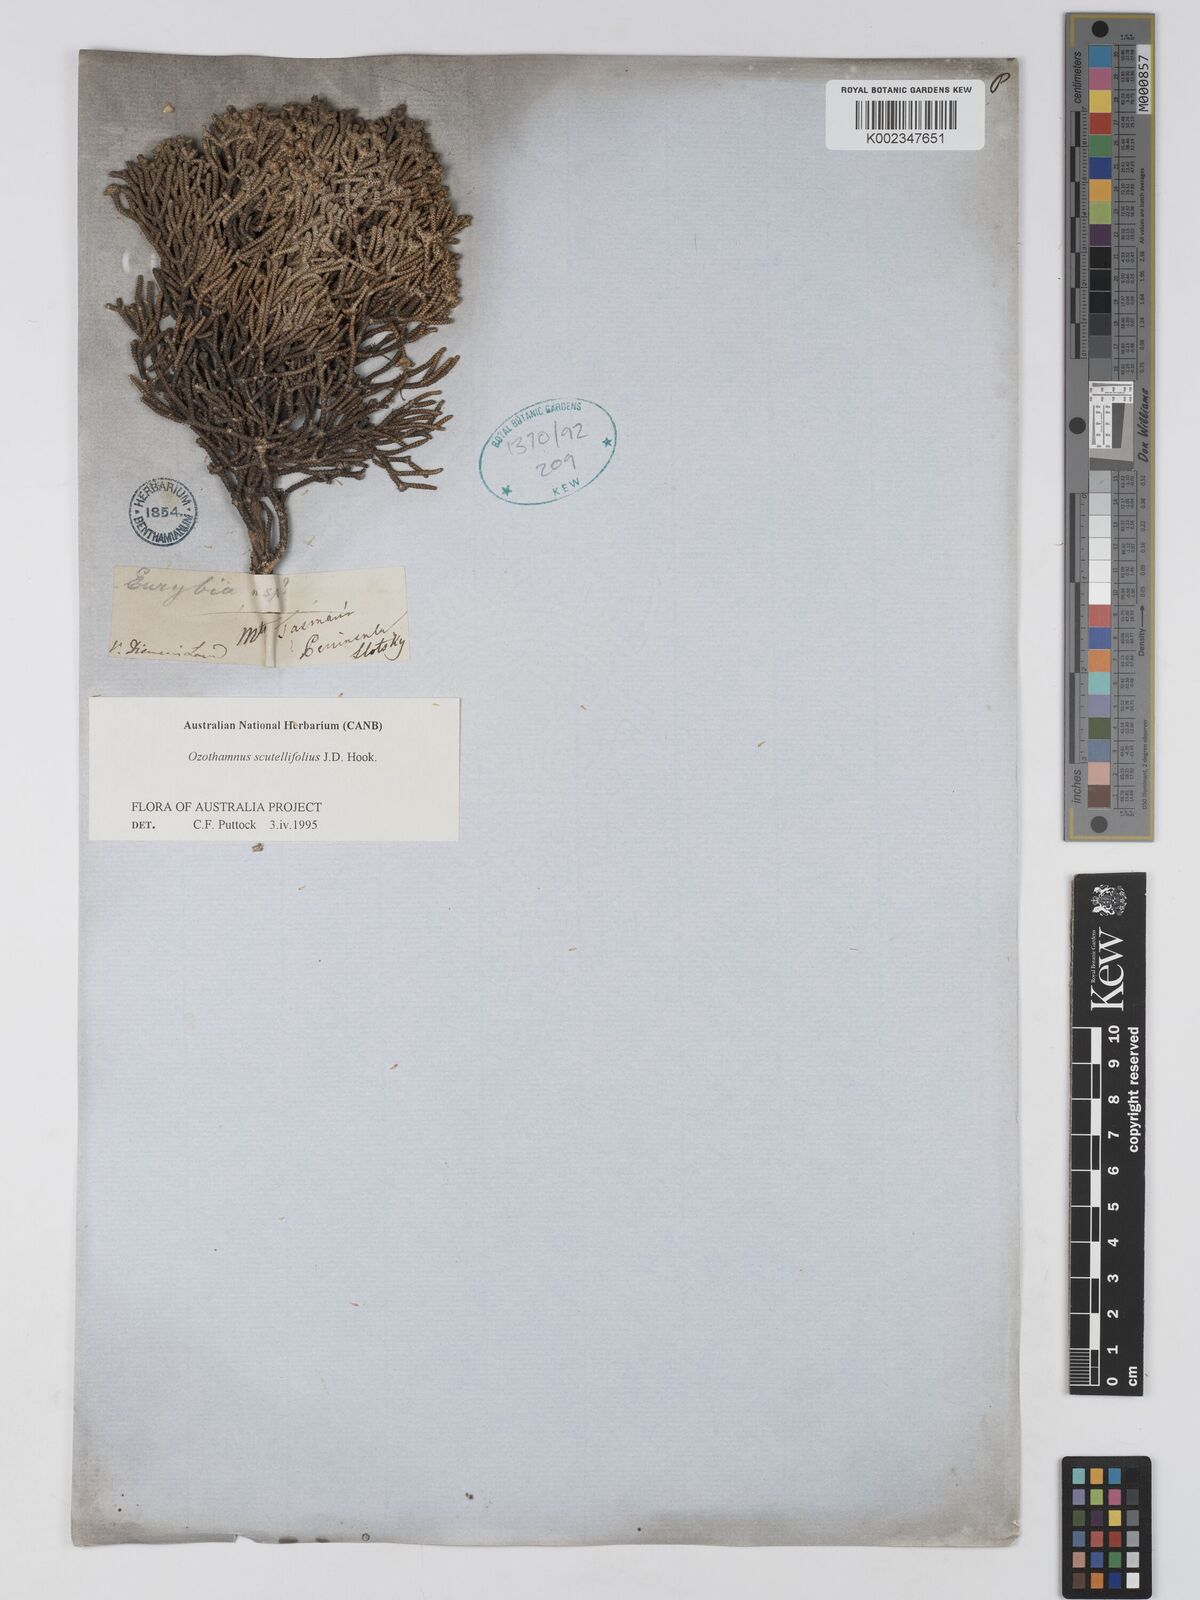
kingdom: Plantae
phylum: Tracheophyta
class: Magnoliopsida
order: Asterales
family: Asteraceae
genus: Ozothamnus
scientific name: Ozothamnus scutellifolius
